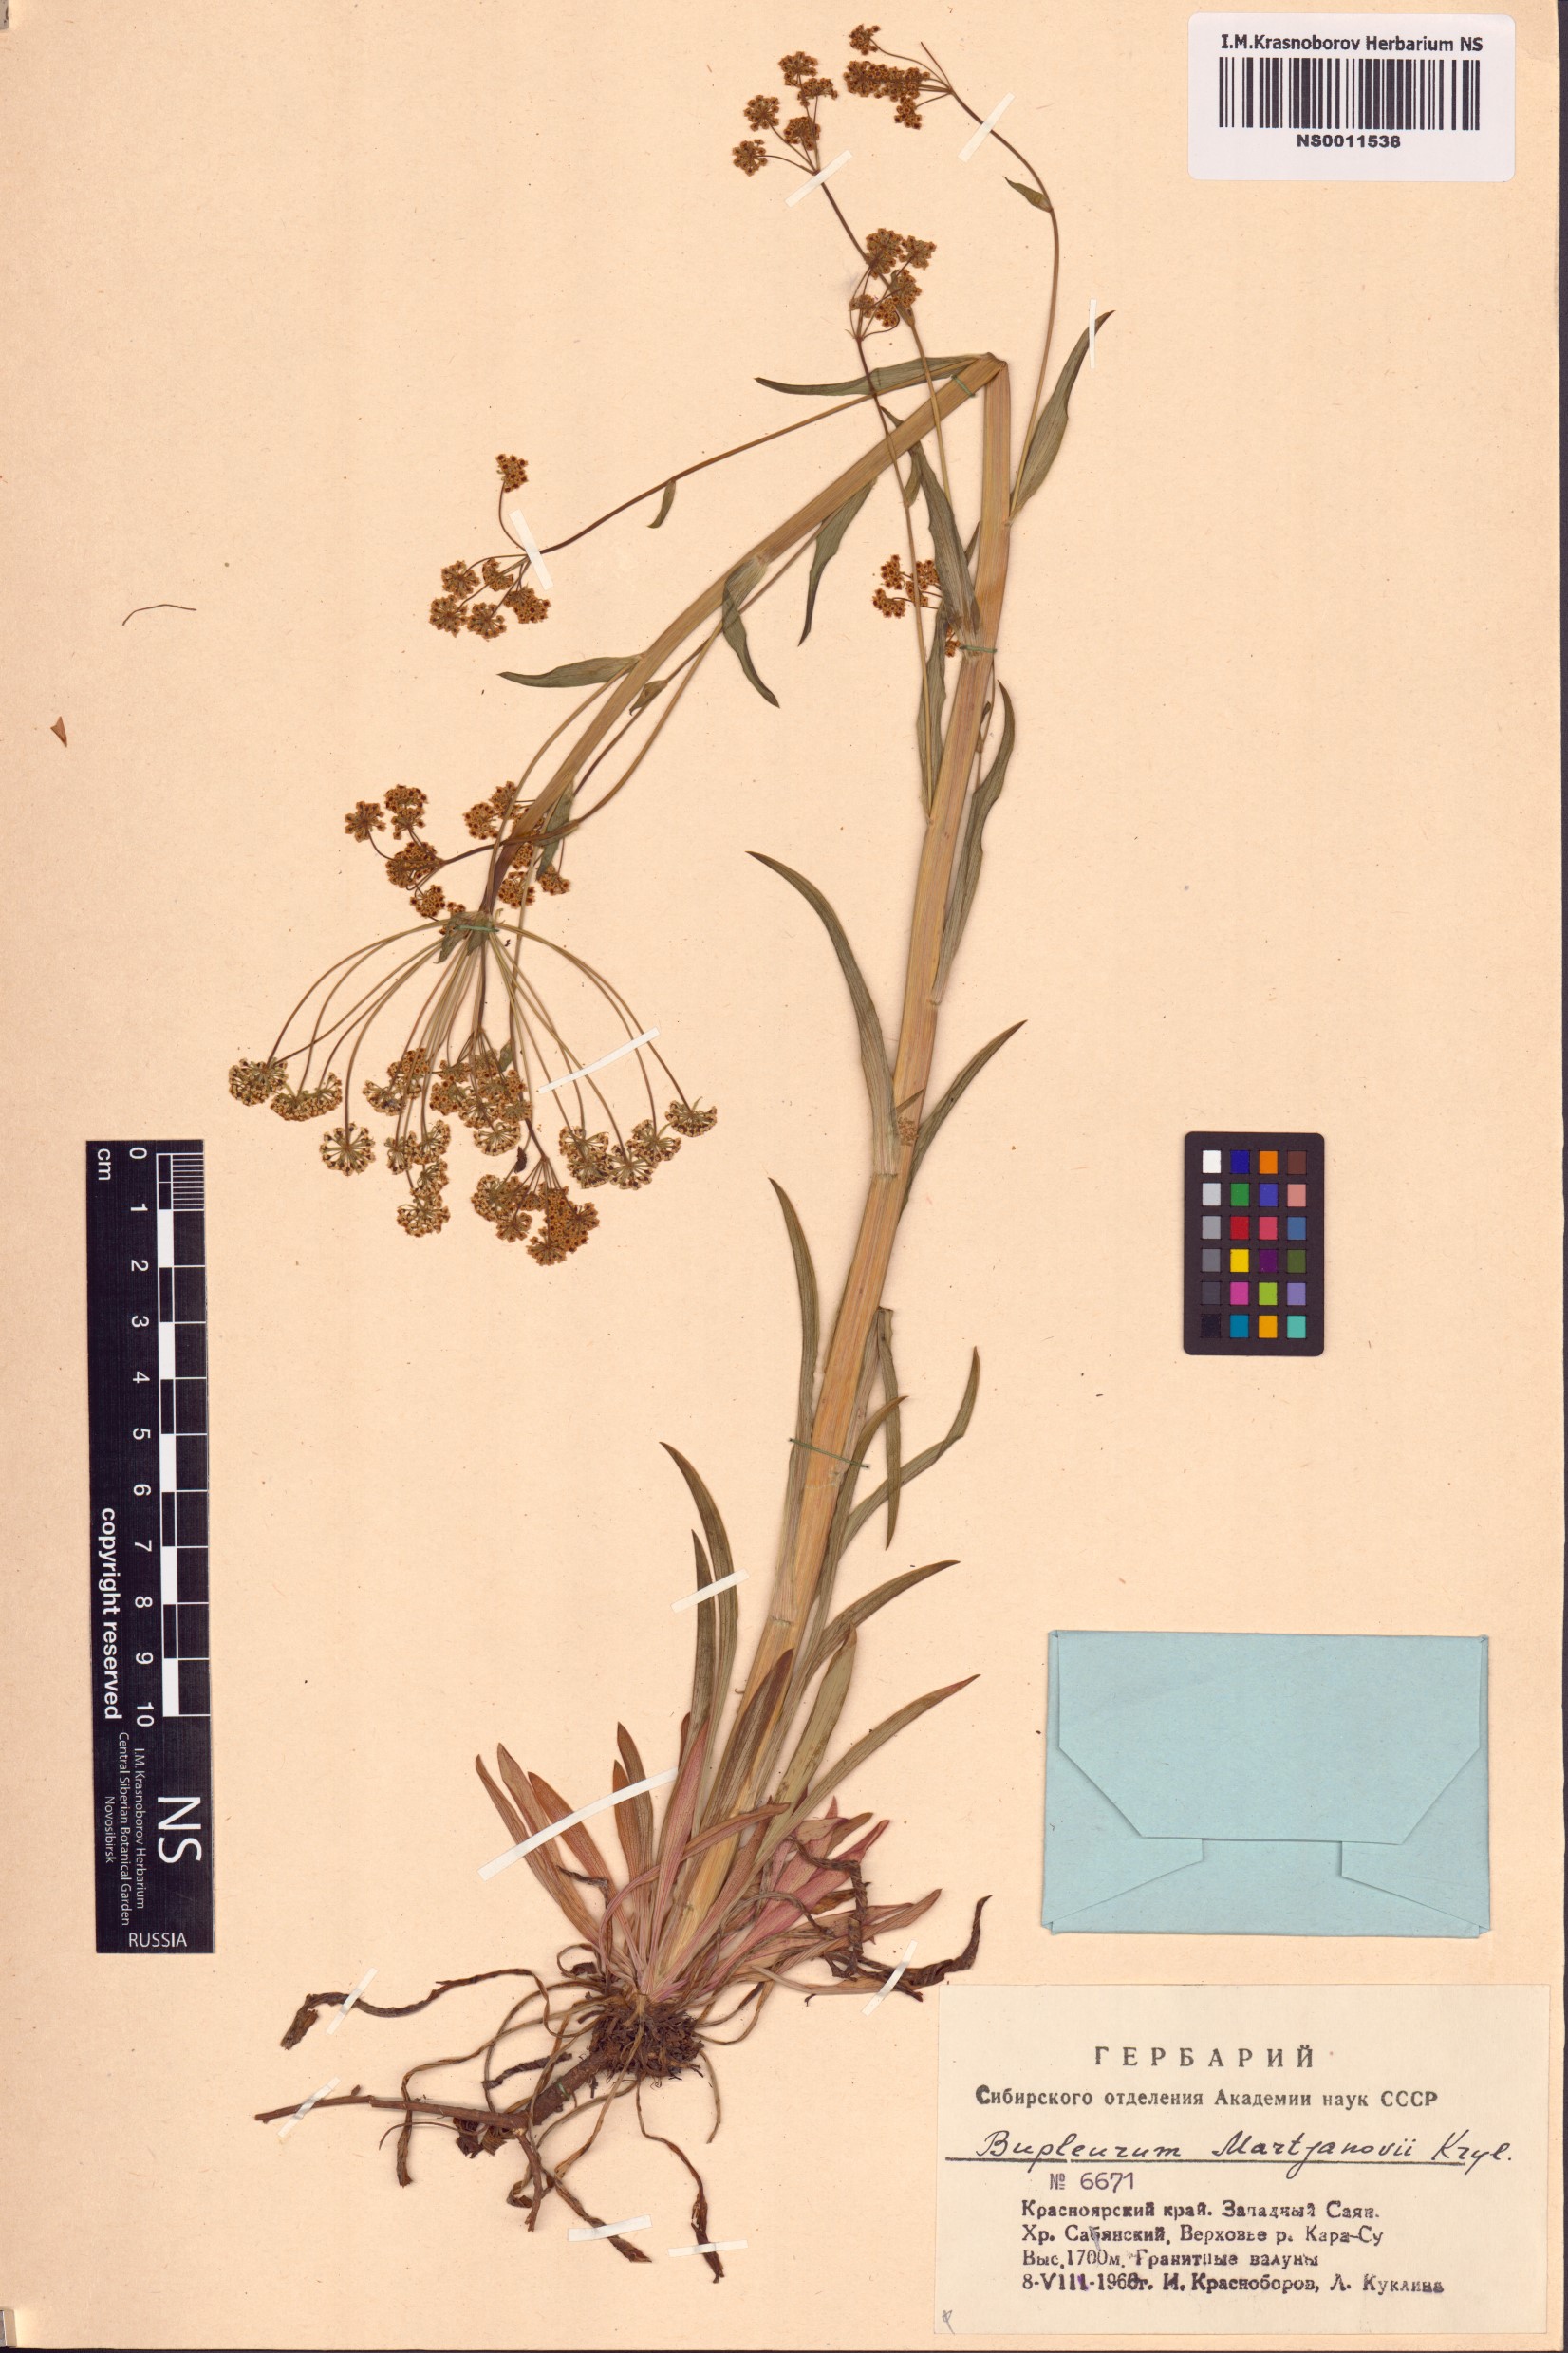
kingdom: Plantae
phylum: Tracheophyta
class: Magnoliopsida
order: Apiales
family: Apiaceae
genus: Bupleurum
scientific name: Bupleurum martjanovii
